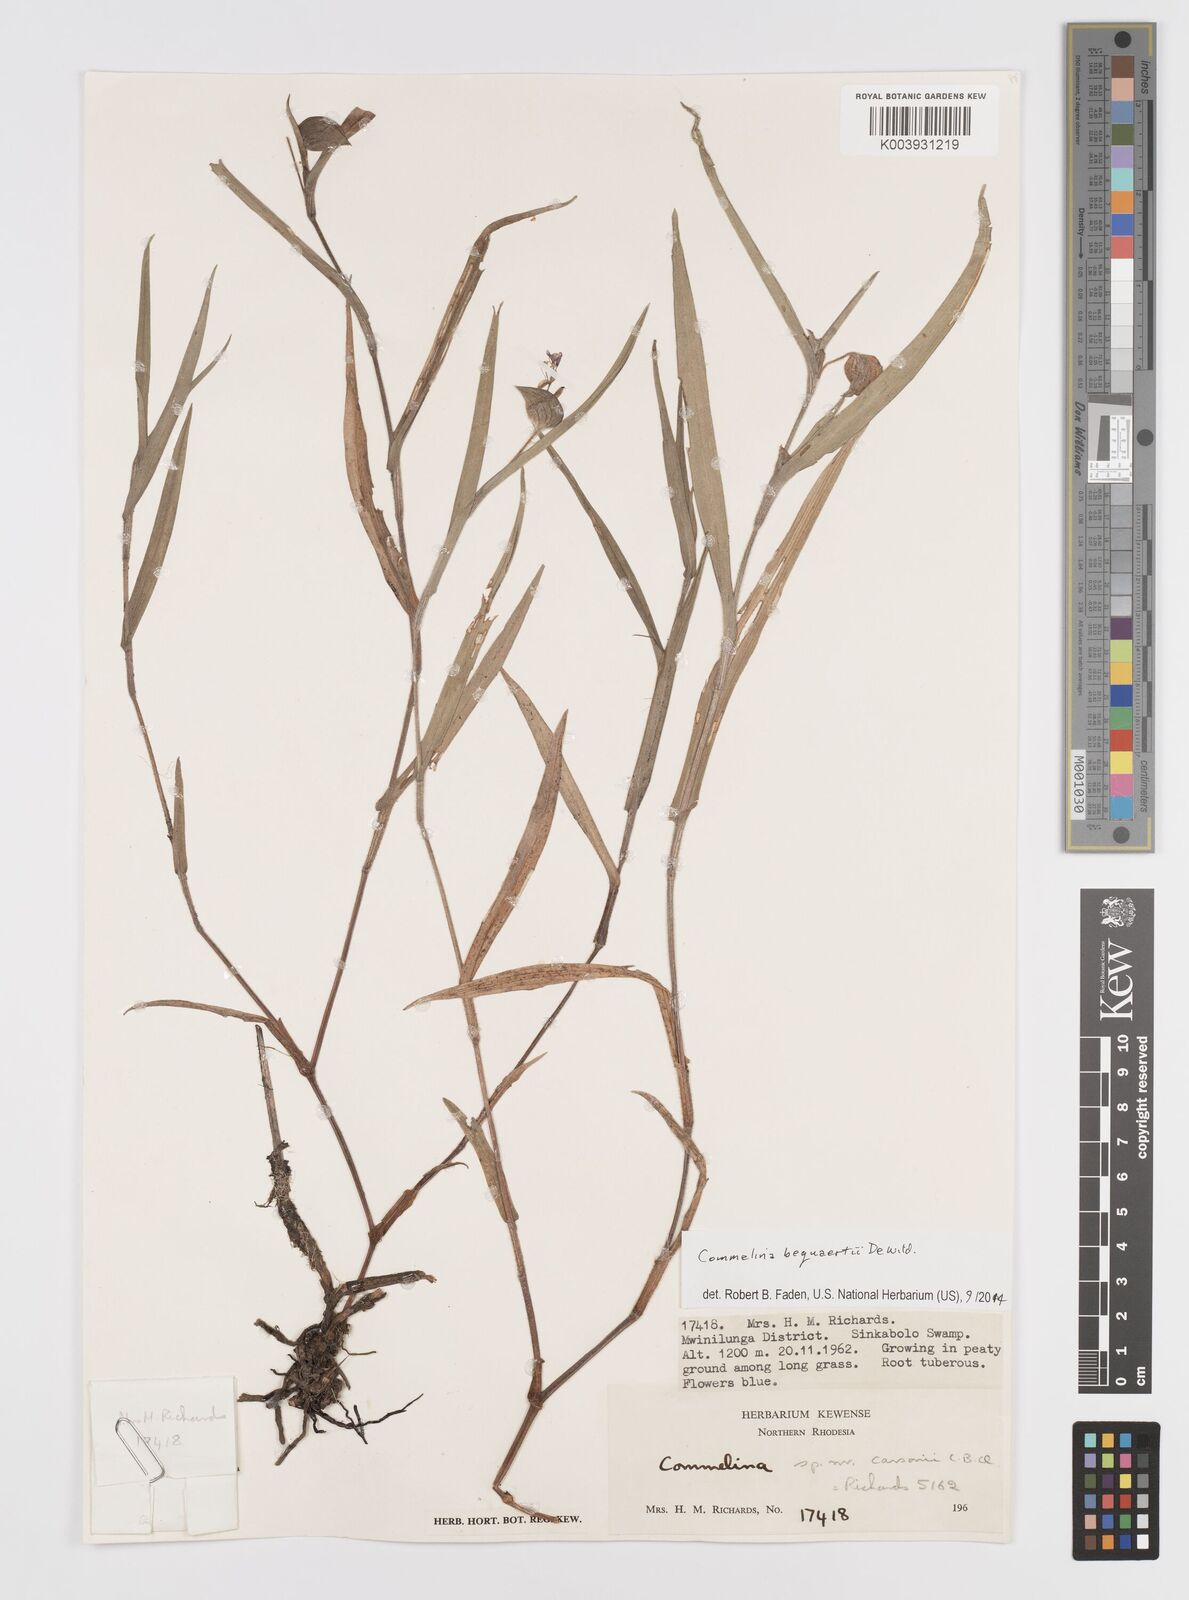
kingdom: Plantae
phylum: Tracheophyta
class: Liliopsida
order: Commelinales
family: Commelinaceae
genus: Commelina
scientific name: Commelina bequaertii
